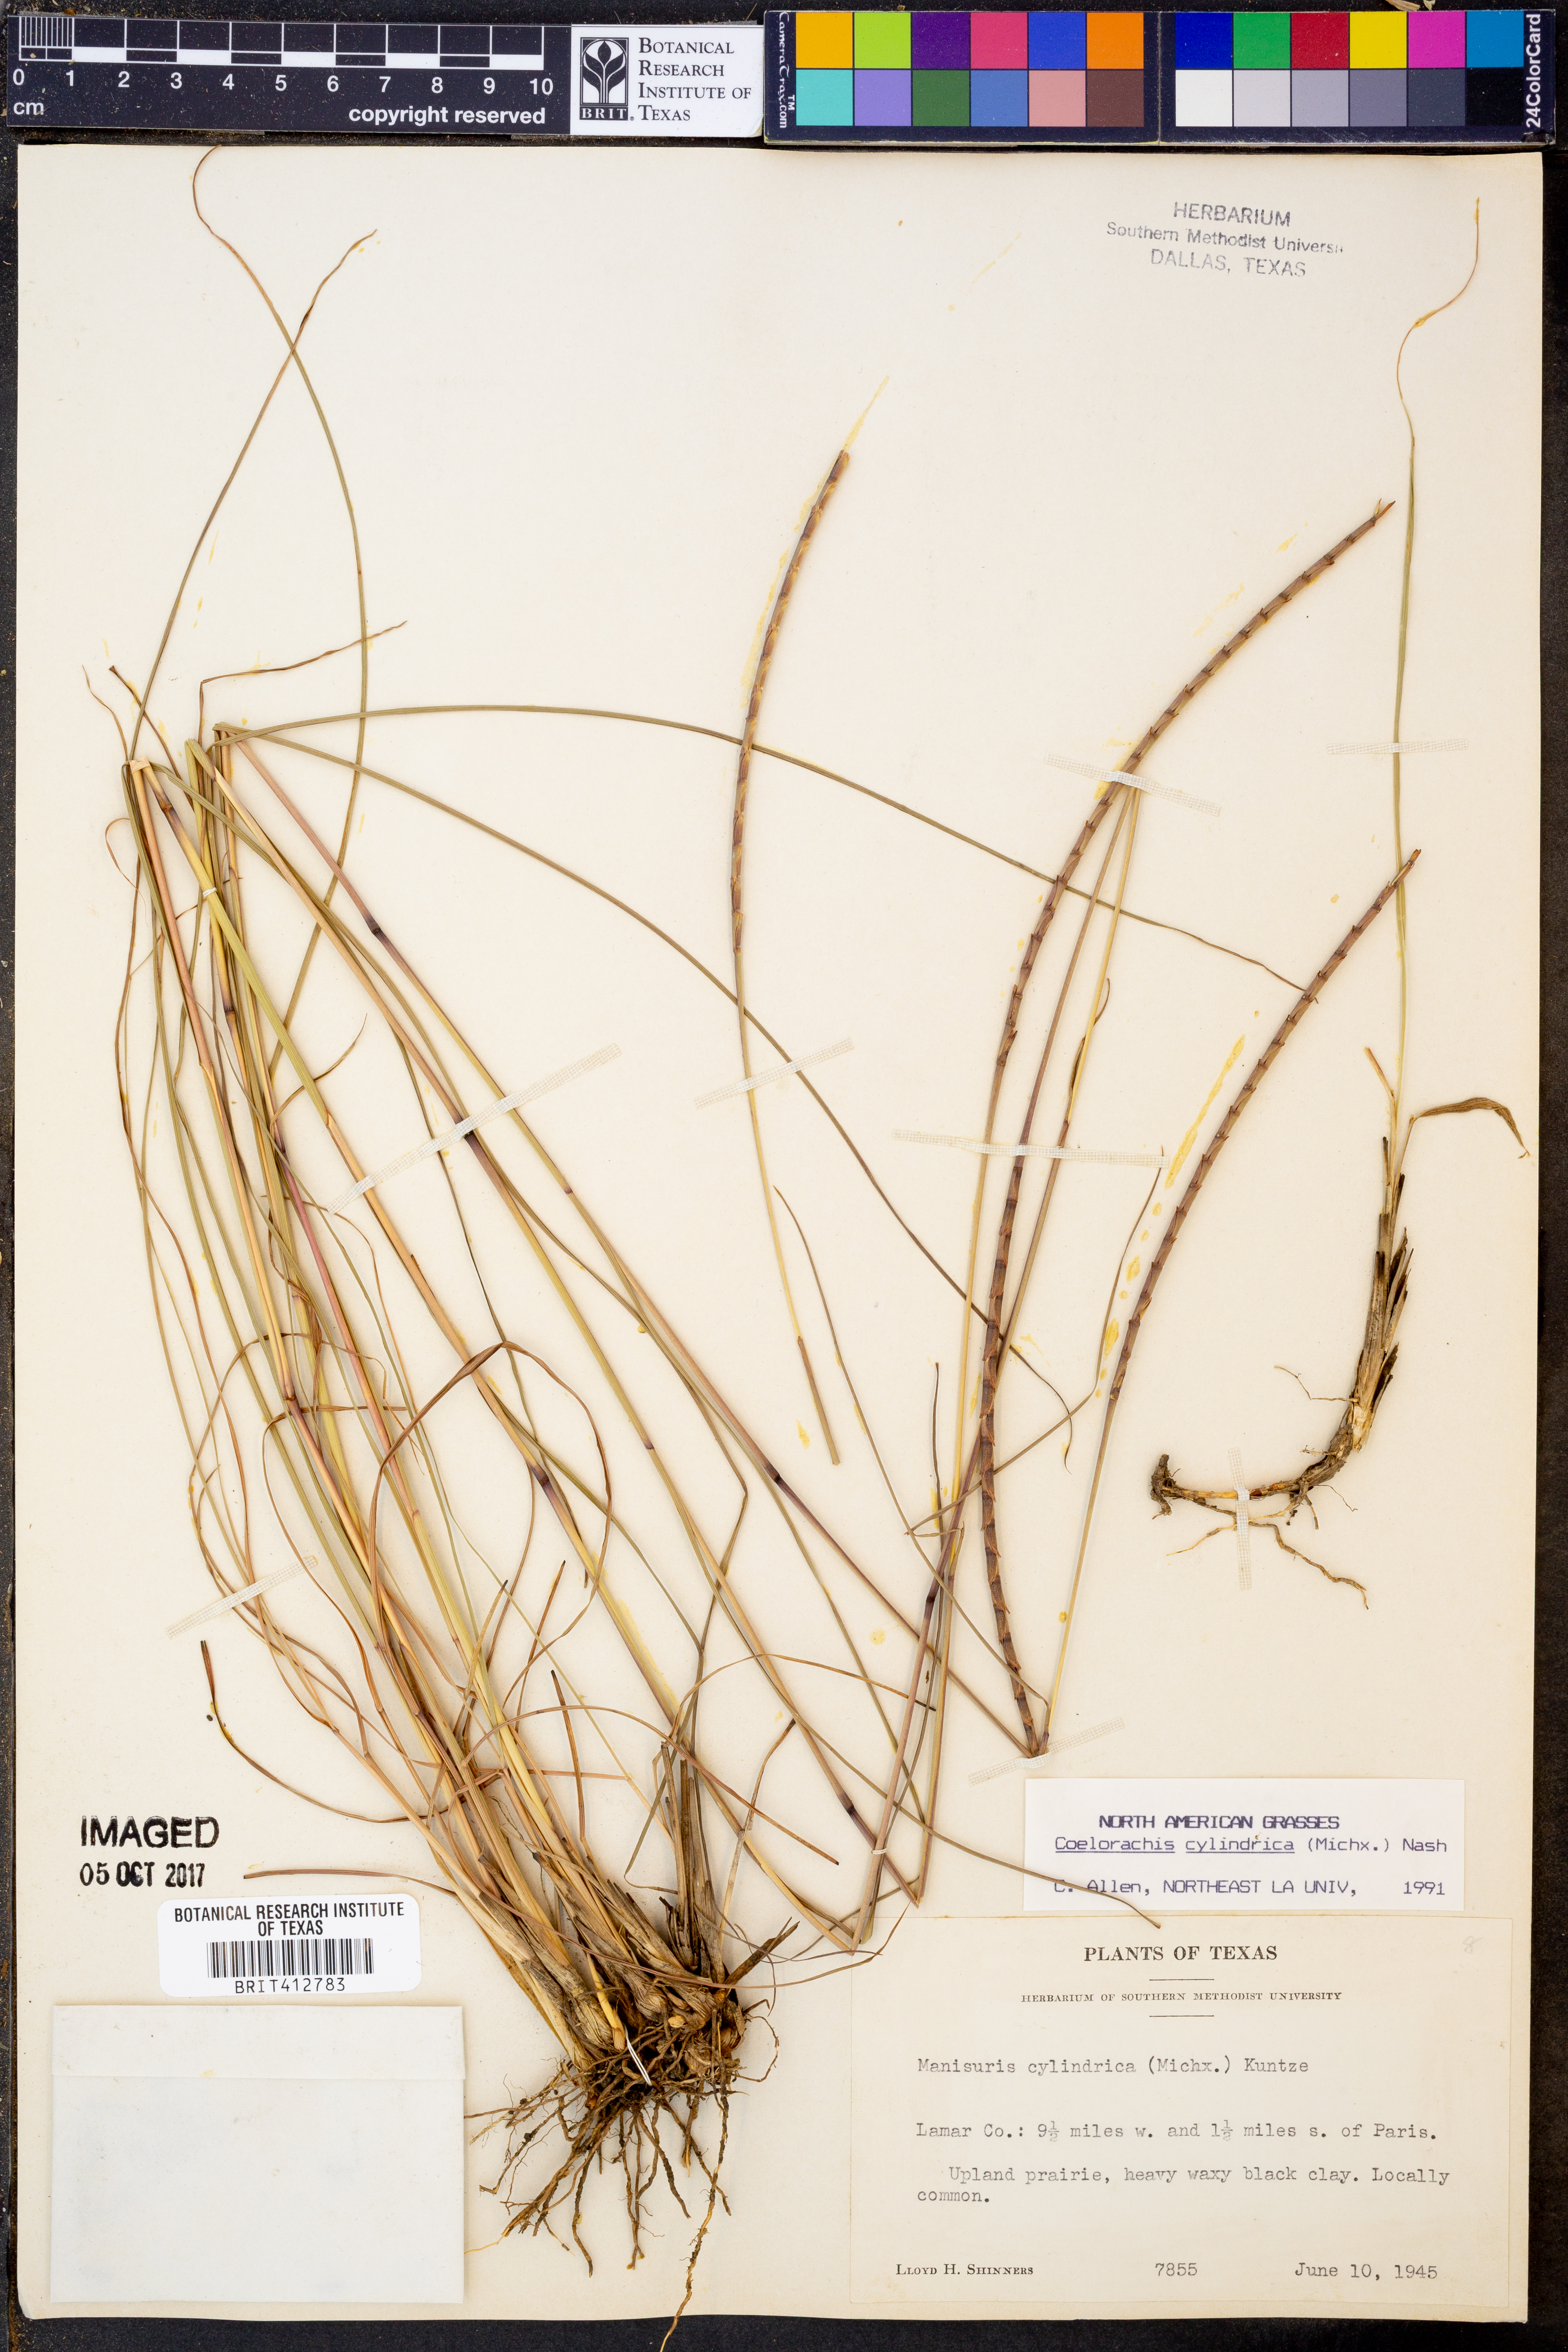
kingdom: Plantae
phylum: Tracheophyta
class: Liliopsida
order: Poales
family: Poaceae
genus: Rottboellia
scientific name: Rottboellia campestris
